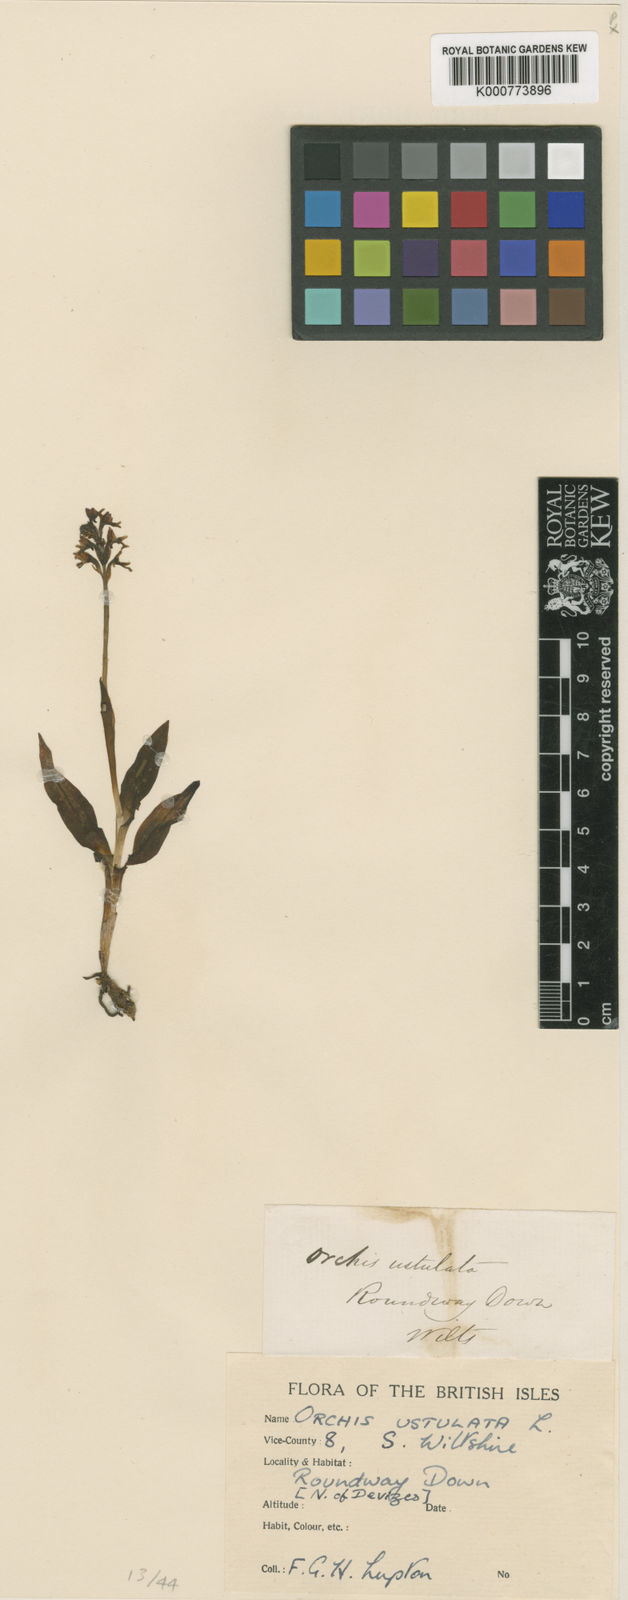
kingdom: Plantae
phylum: Tracheophyta
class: Liliopsida
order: Asparagales
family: Orchidaceae
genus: Neotinea
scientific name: Neotinea ustulata
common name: Burnt orchid
